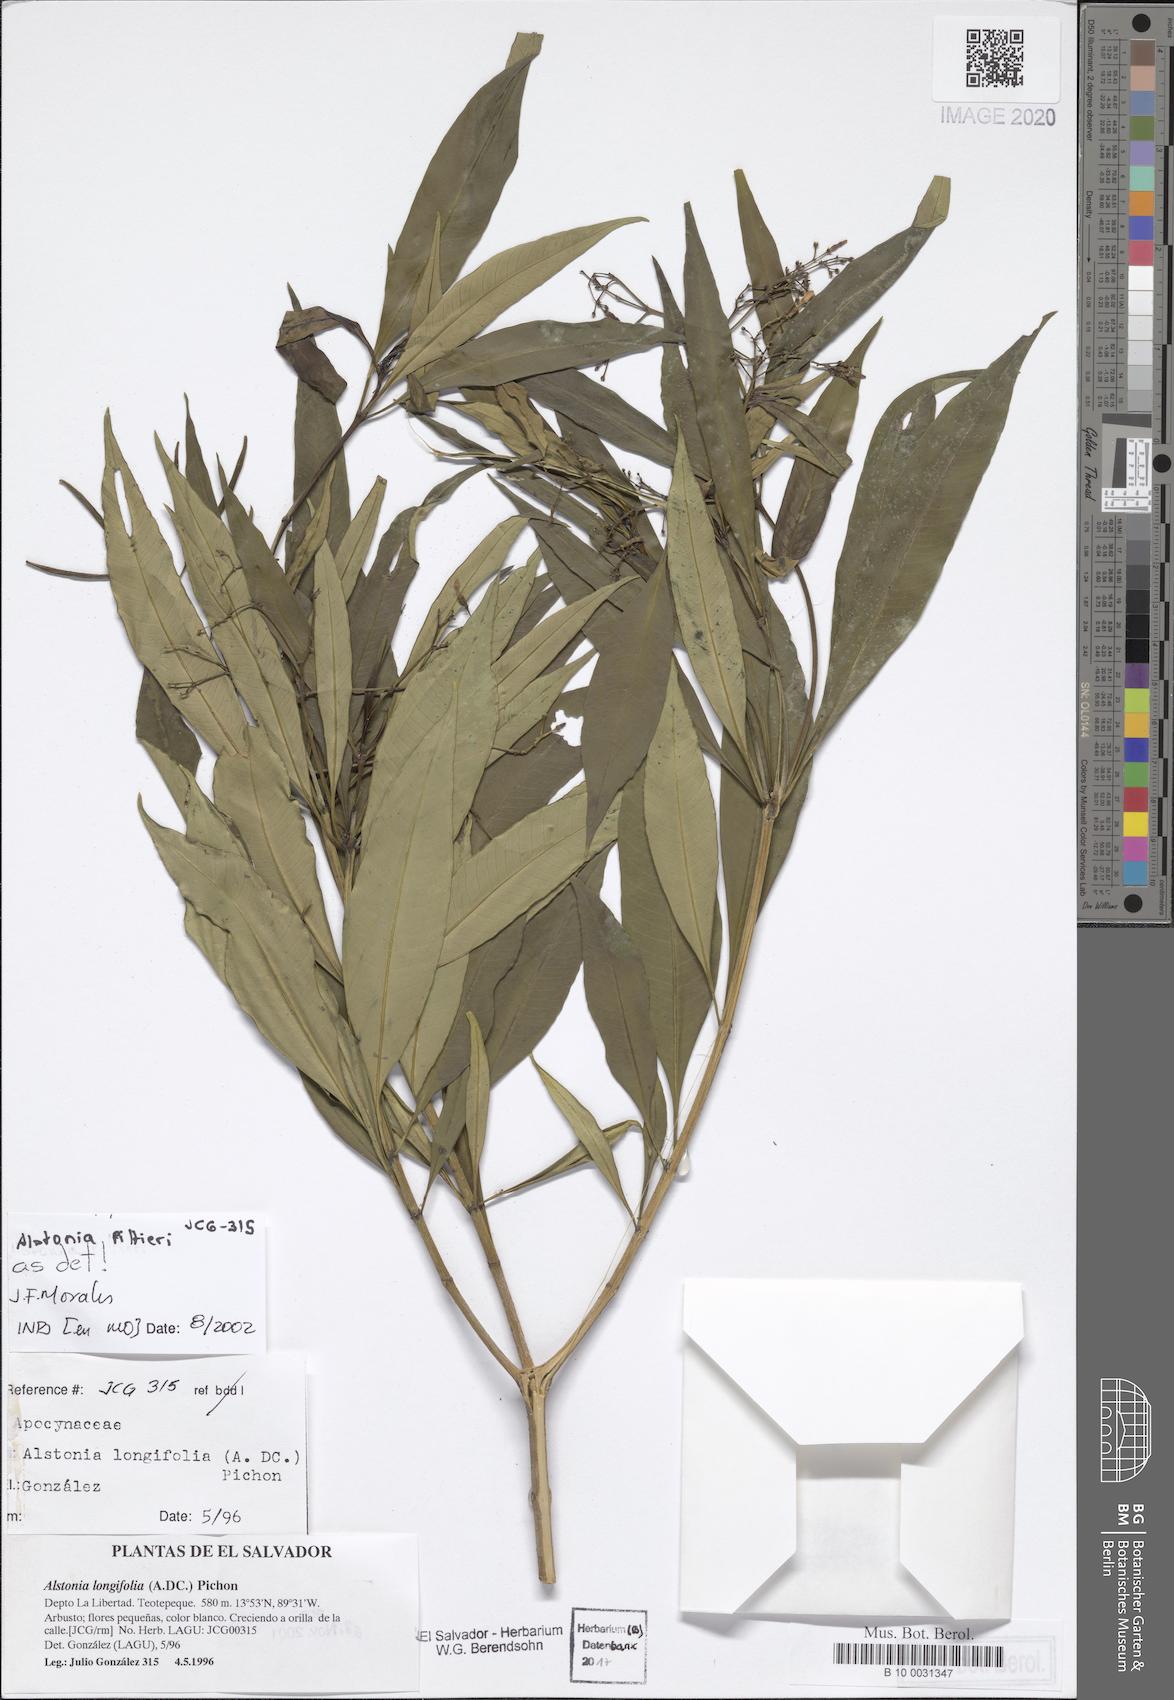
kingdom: Plantae
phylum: Tracheophyta
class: Magnoliopsida
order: Gentianales
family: Apocynaceae
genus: Tonduzia
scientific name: Tonduzia longifolia
